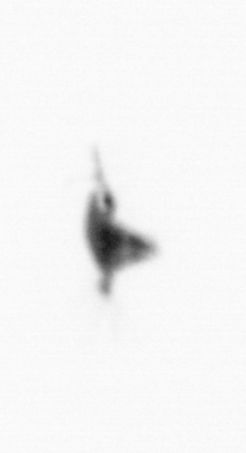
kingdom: Animalia
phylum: Arthropoda
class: Copepoda
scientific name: Copepoda
